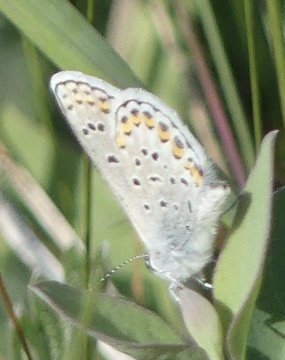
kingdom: Animalia
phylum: Arthropoda
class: Insecta
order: Lepidoptera
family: Lycaenidae
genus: Lycaeides
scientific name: Lycaeides melissa
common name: Melissa Blue
